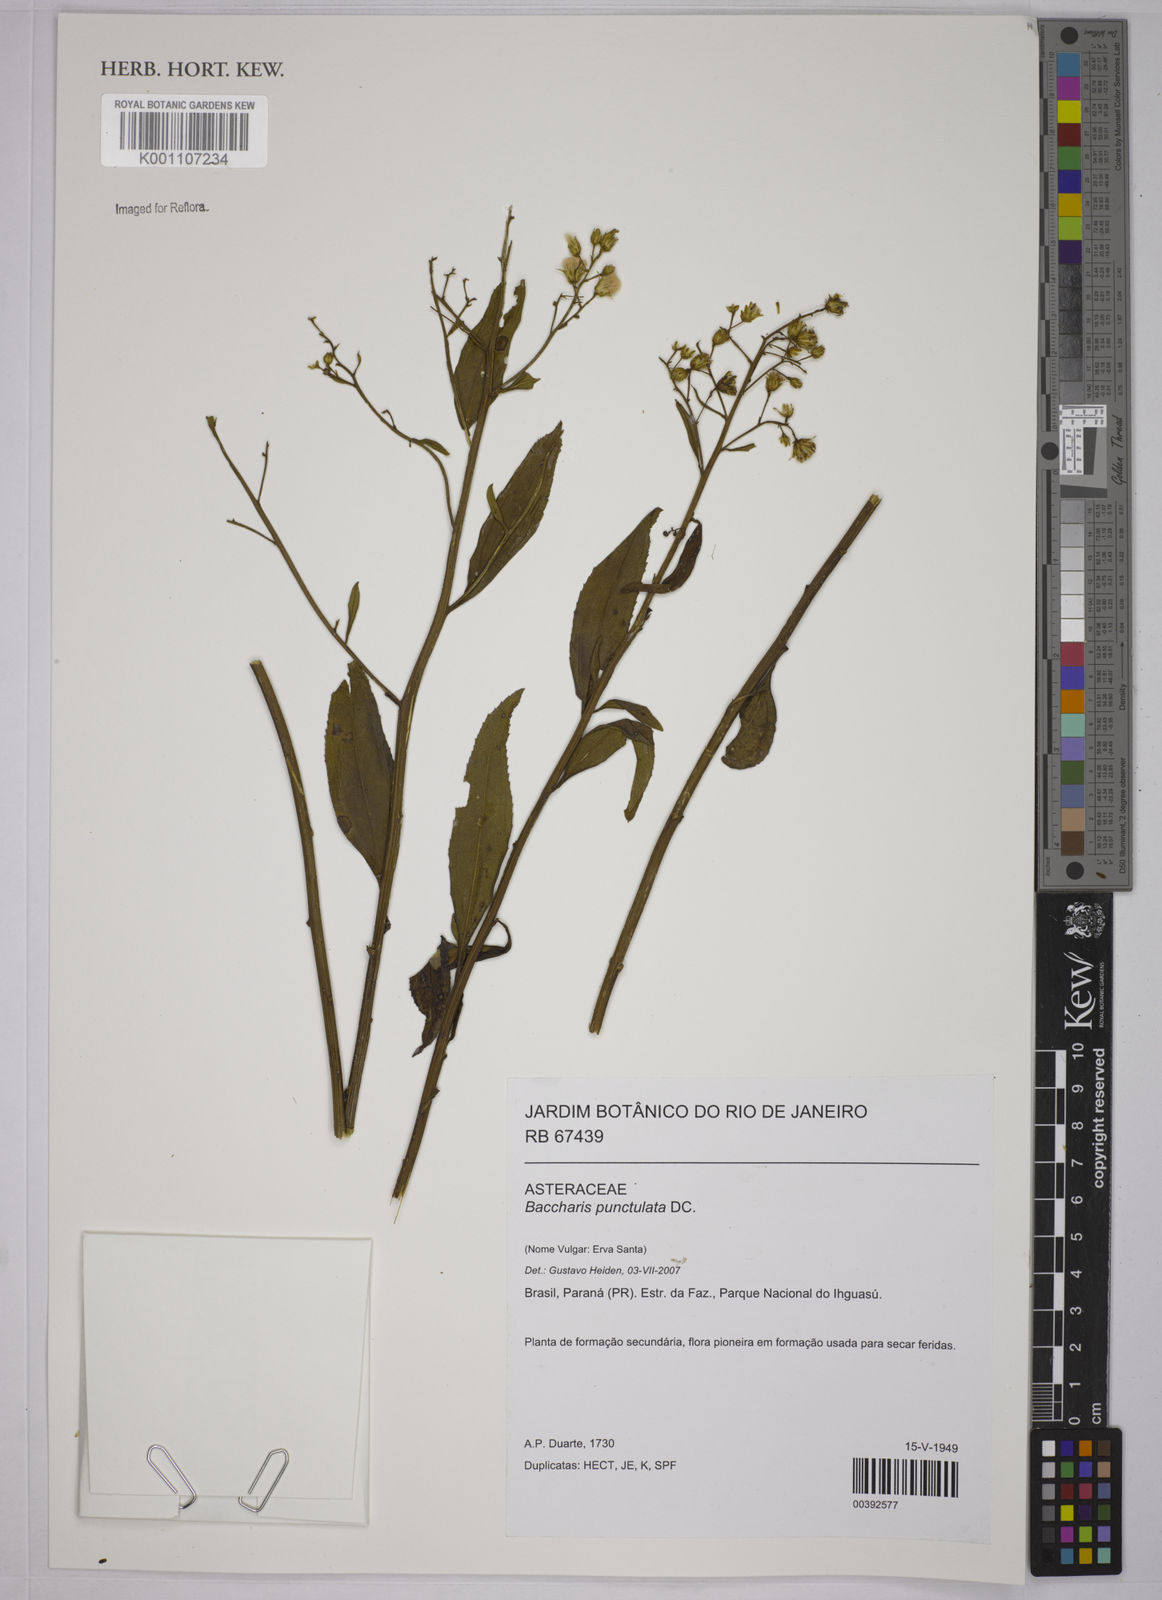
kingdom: Plantae
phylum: Tracheophyta
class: Magnoliopsida
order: Asterales
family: Asteraceae
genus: Baccharis
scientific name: Baccharis punctulata
